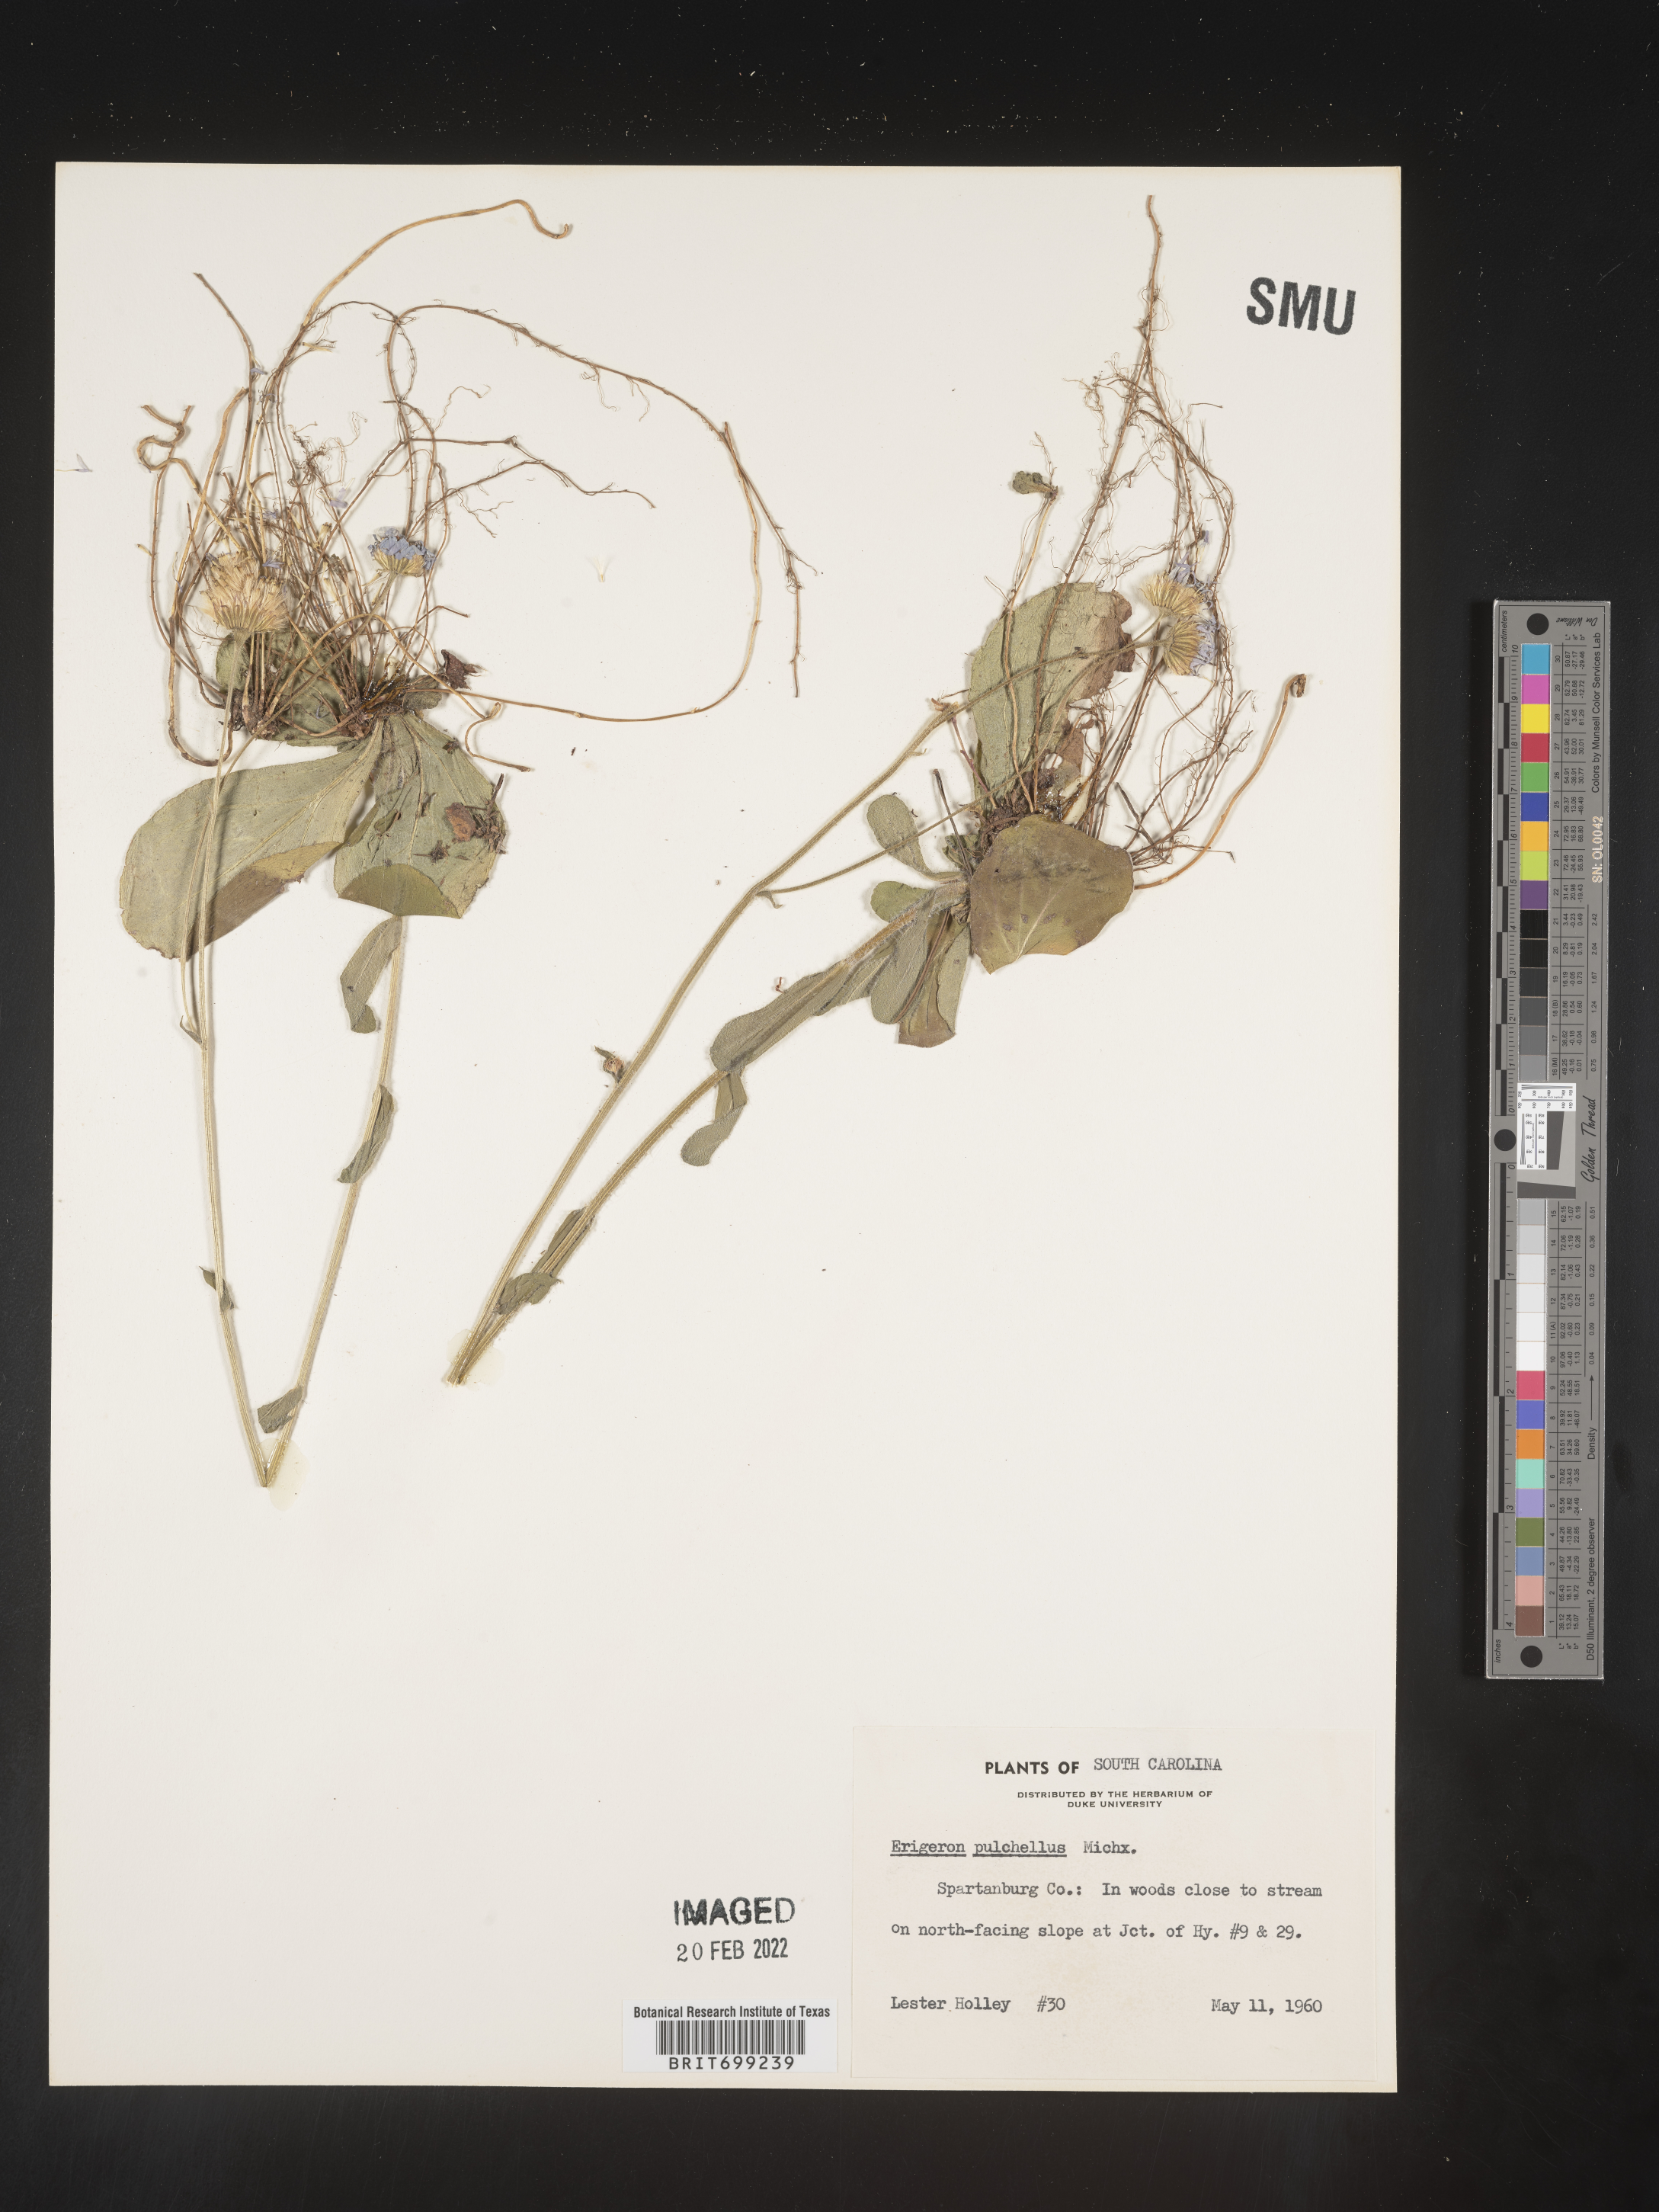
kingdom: Plantae
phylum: Tracheophyta
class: Magnoliopsida
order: Asterales
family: Asteraceae
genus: Erigeron
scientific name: Erigeron pulchellus
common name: Hairy fleabane
